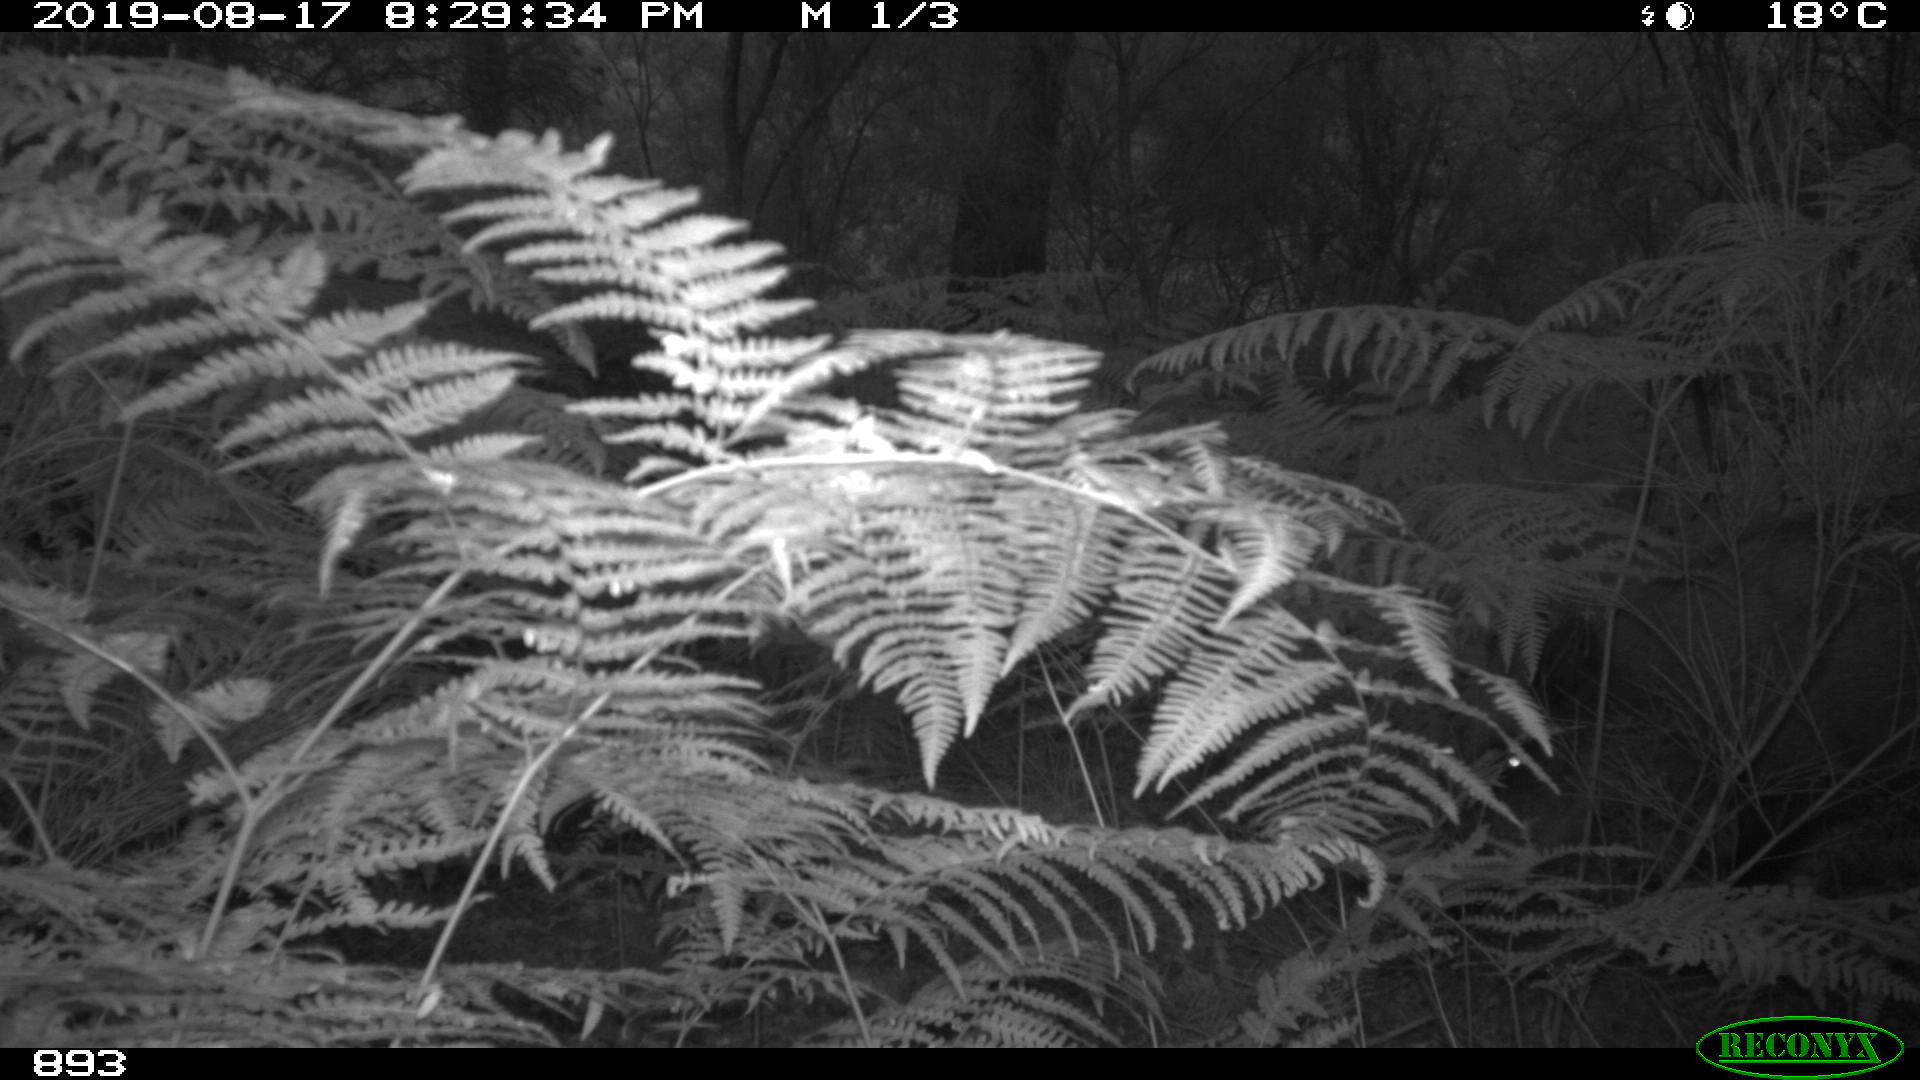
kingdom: Animalia
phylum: Chordata
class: Mammalia
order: Artiodactyla
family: Suidae
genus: Sus
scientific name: Sus scrofa
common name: Wild boar
